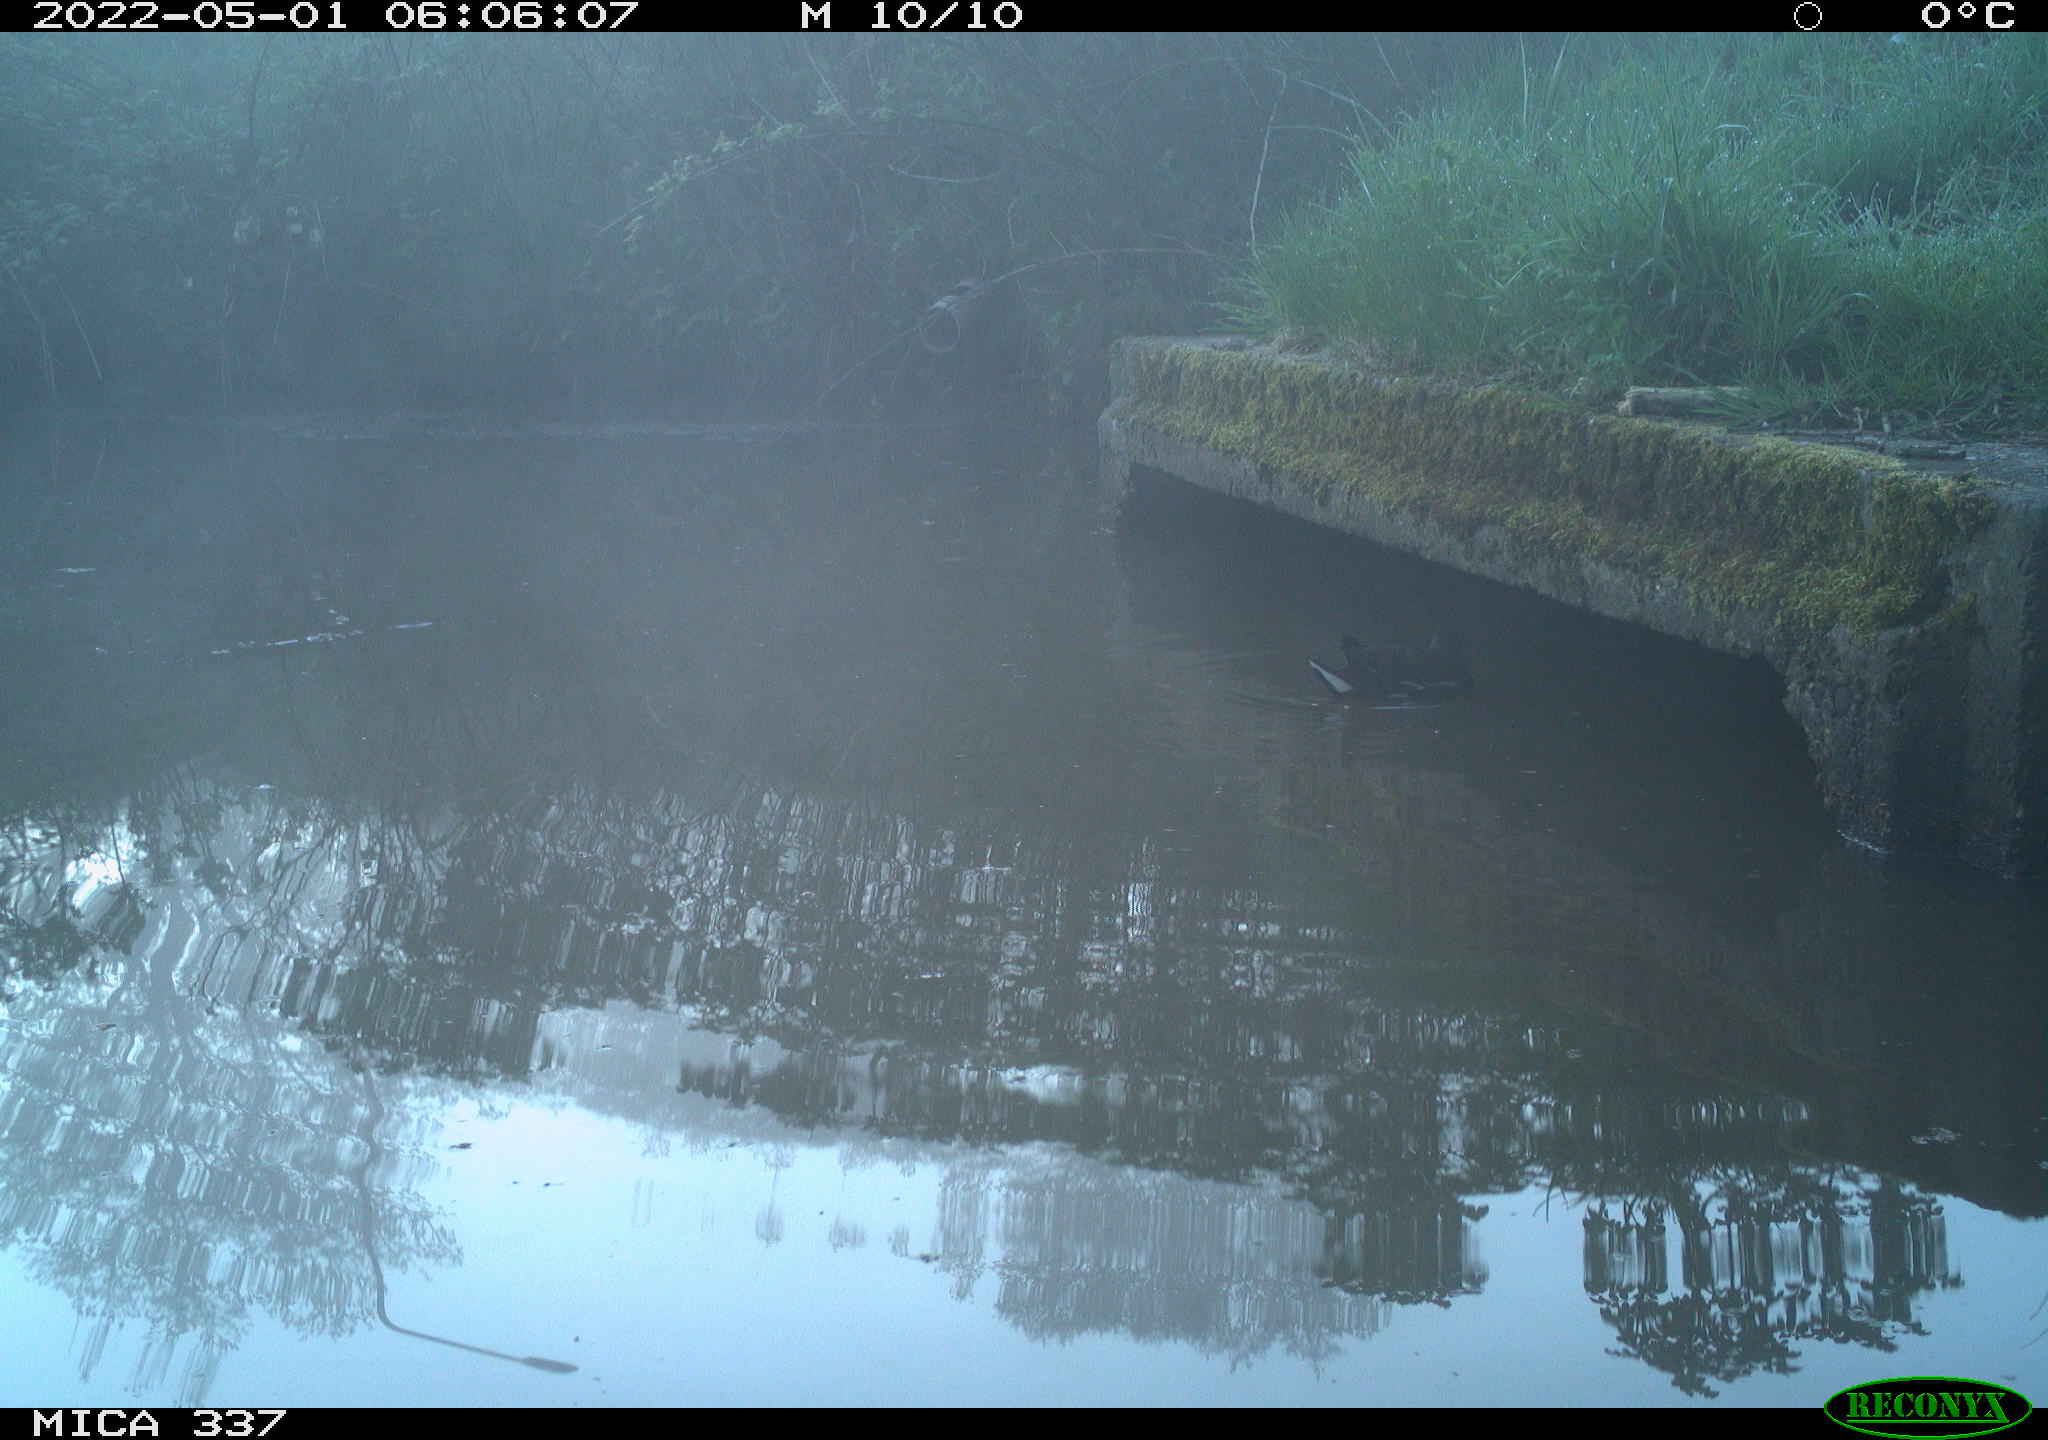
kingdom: Animalia
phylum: Chordata
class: Aves
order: Gruiformes
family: Rallidae
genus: Gallinula
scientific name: Gallinula chloropus
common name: Common moorhen
